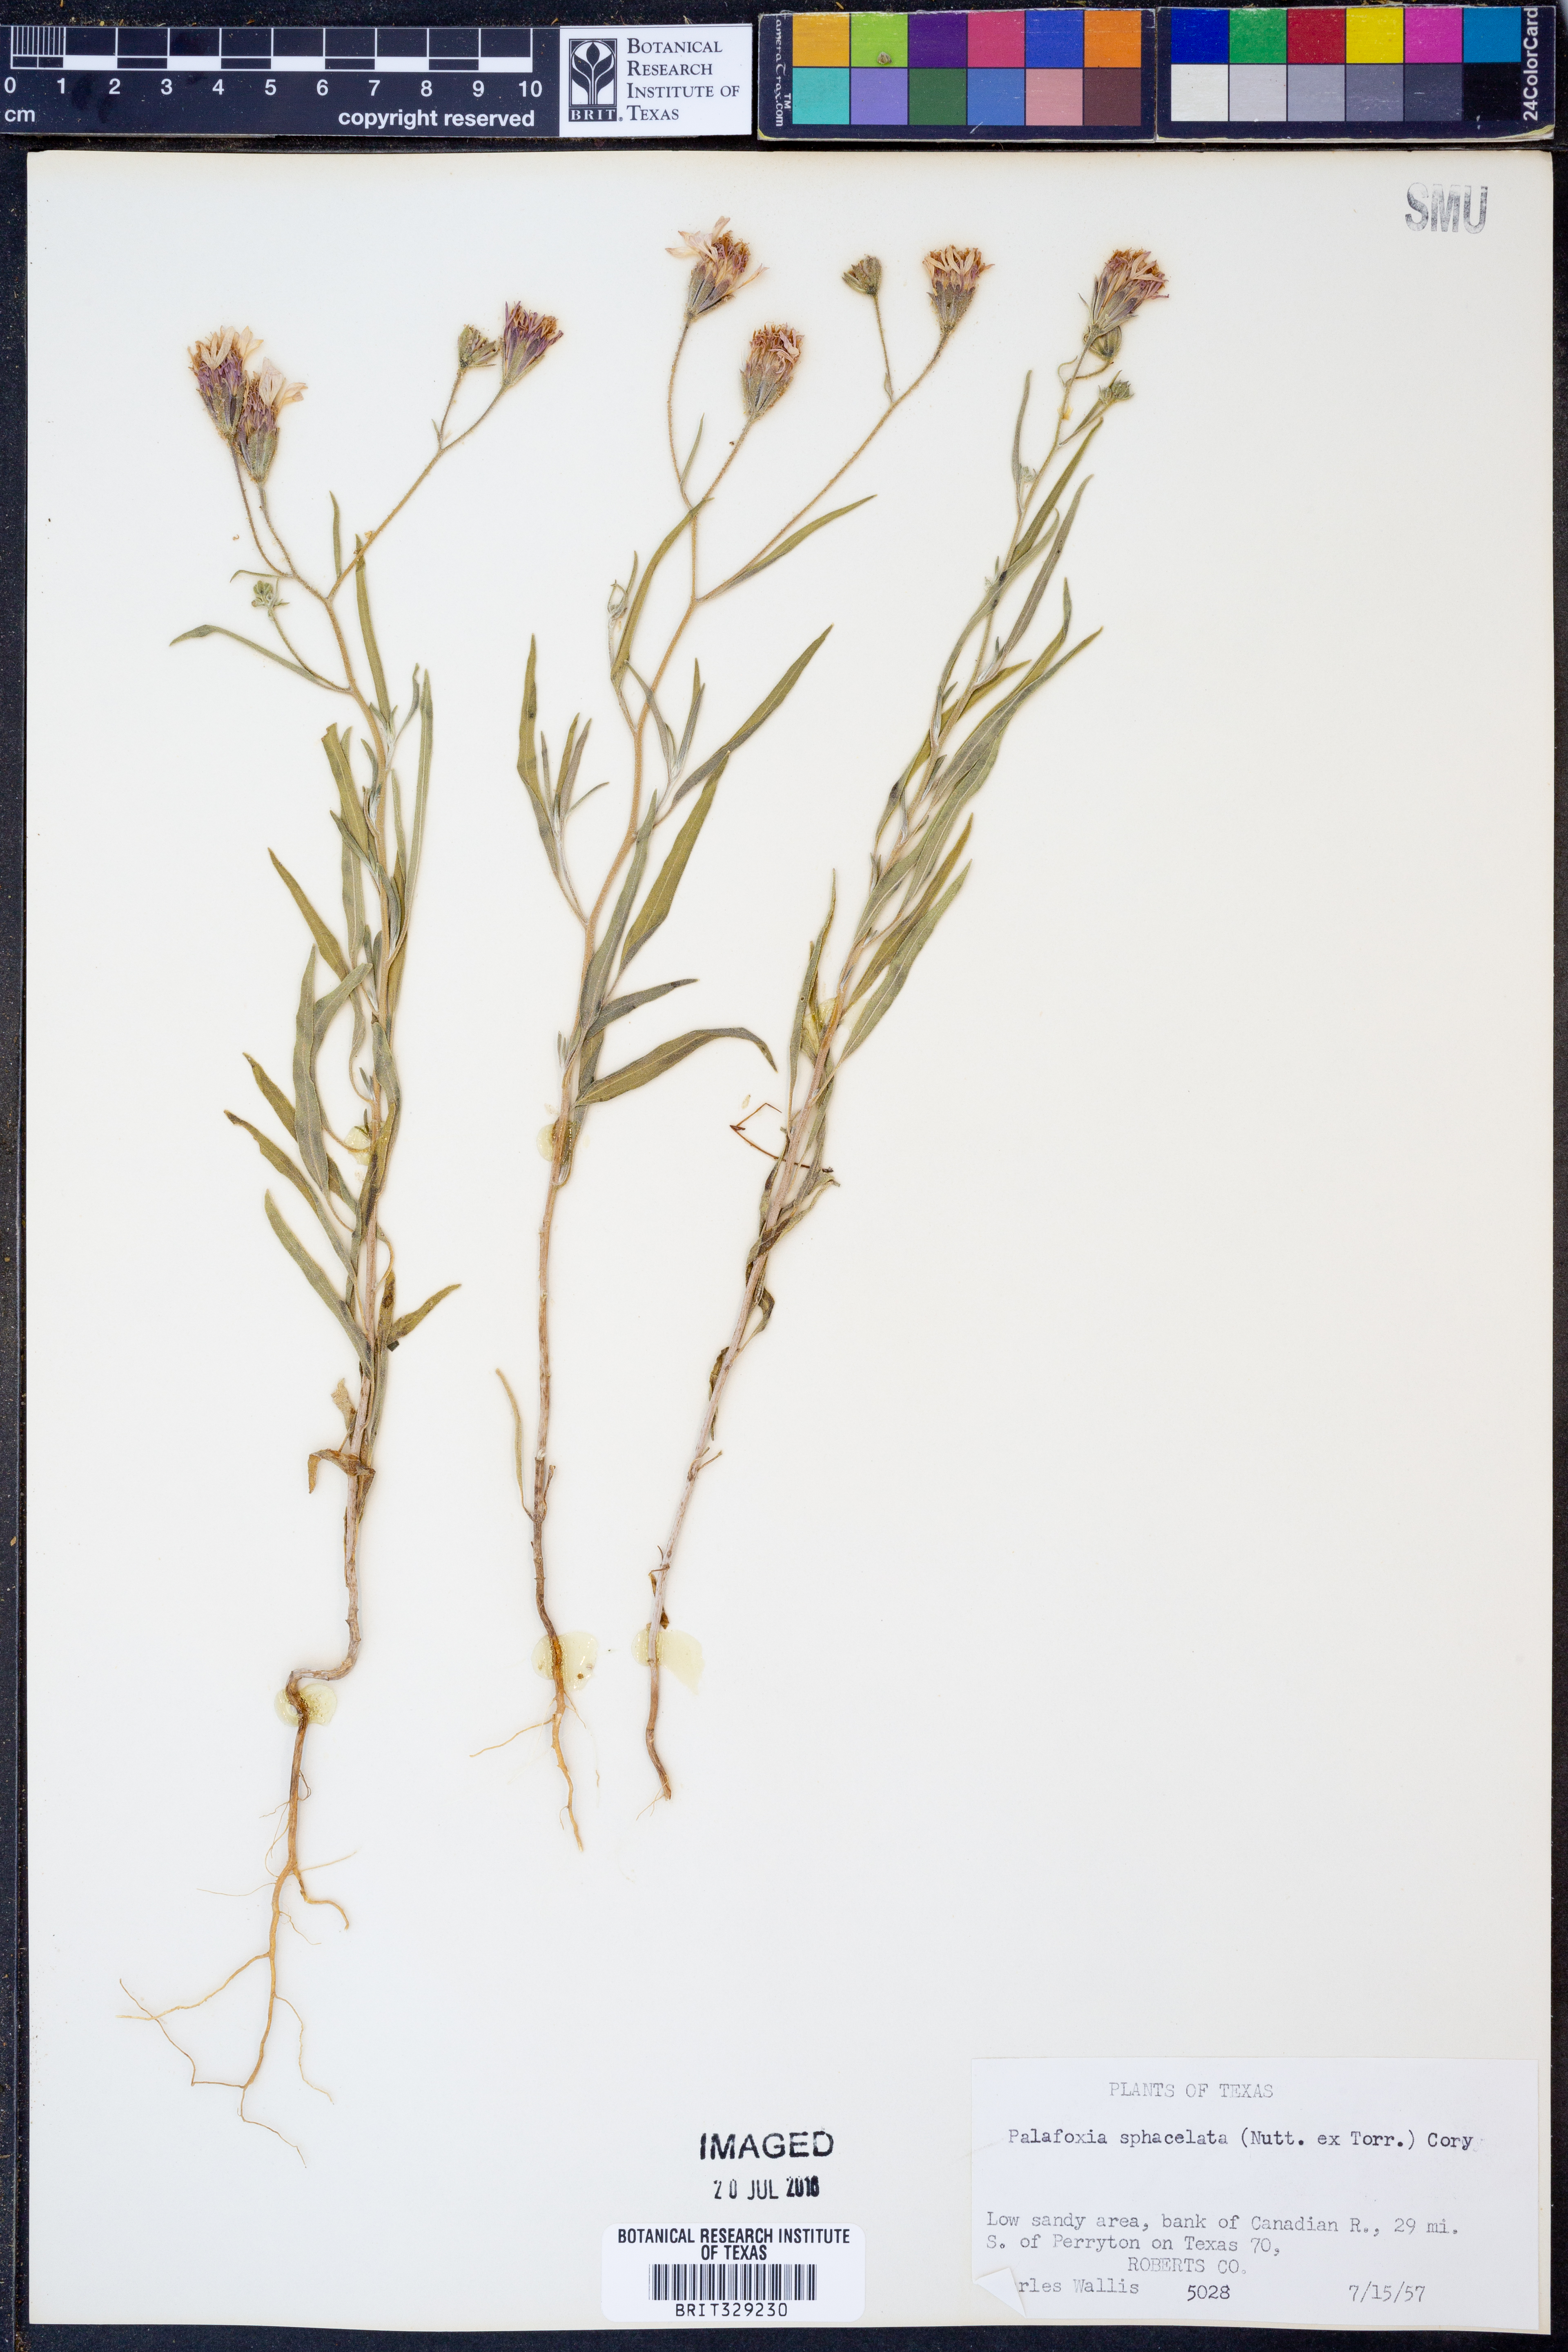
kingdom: Plantae
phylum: Tracheophyta
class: Magnoliopsida
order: Asterales
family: Asteraceae
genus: Palafoxia
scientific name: Palafoxia sphacelata
